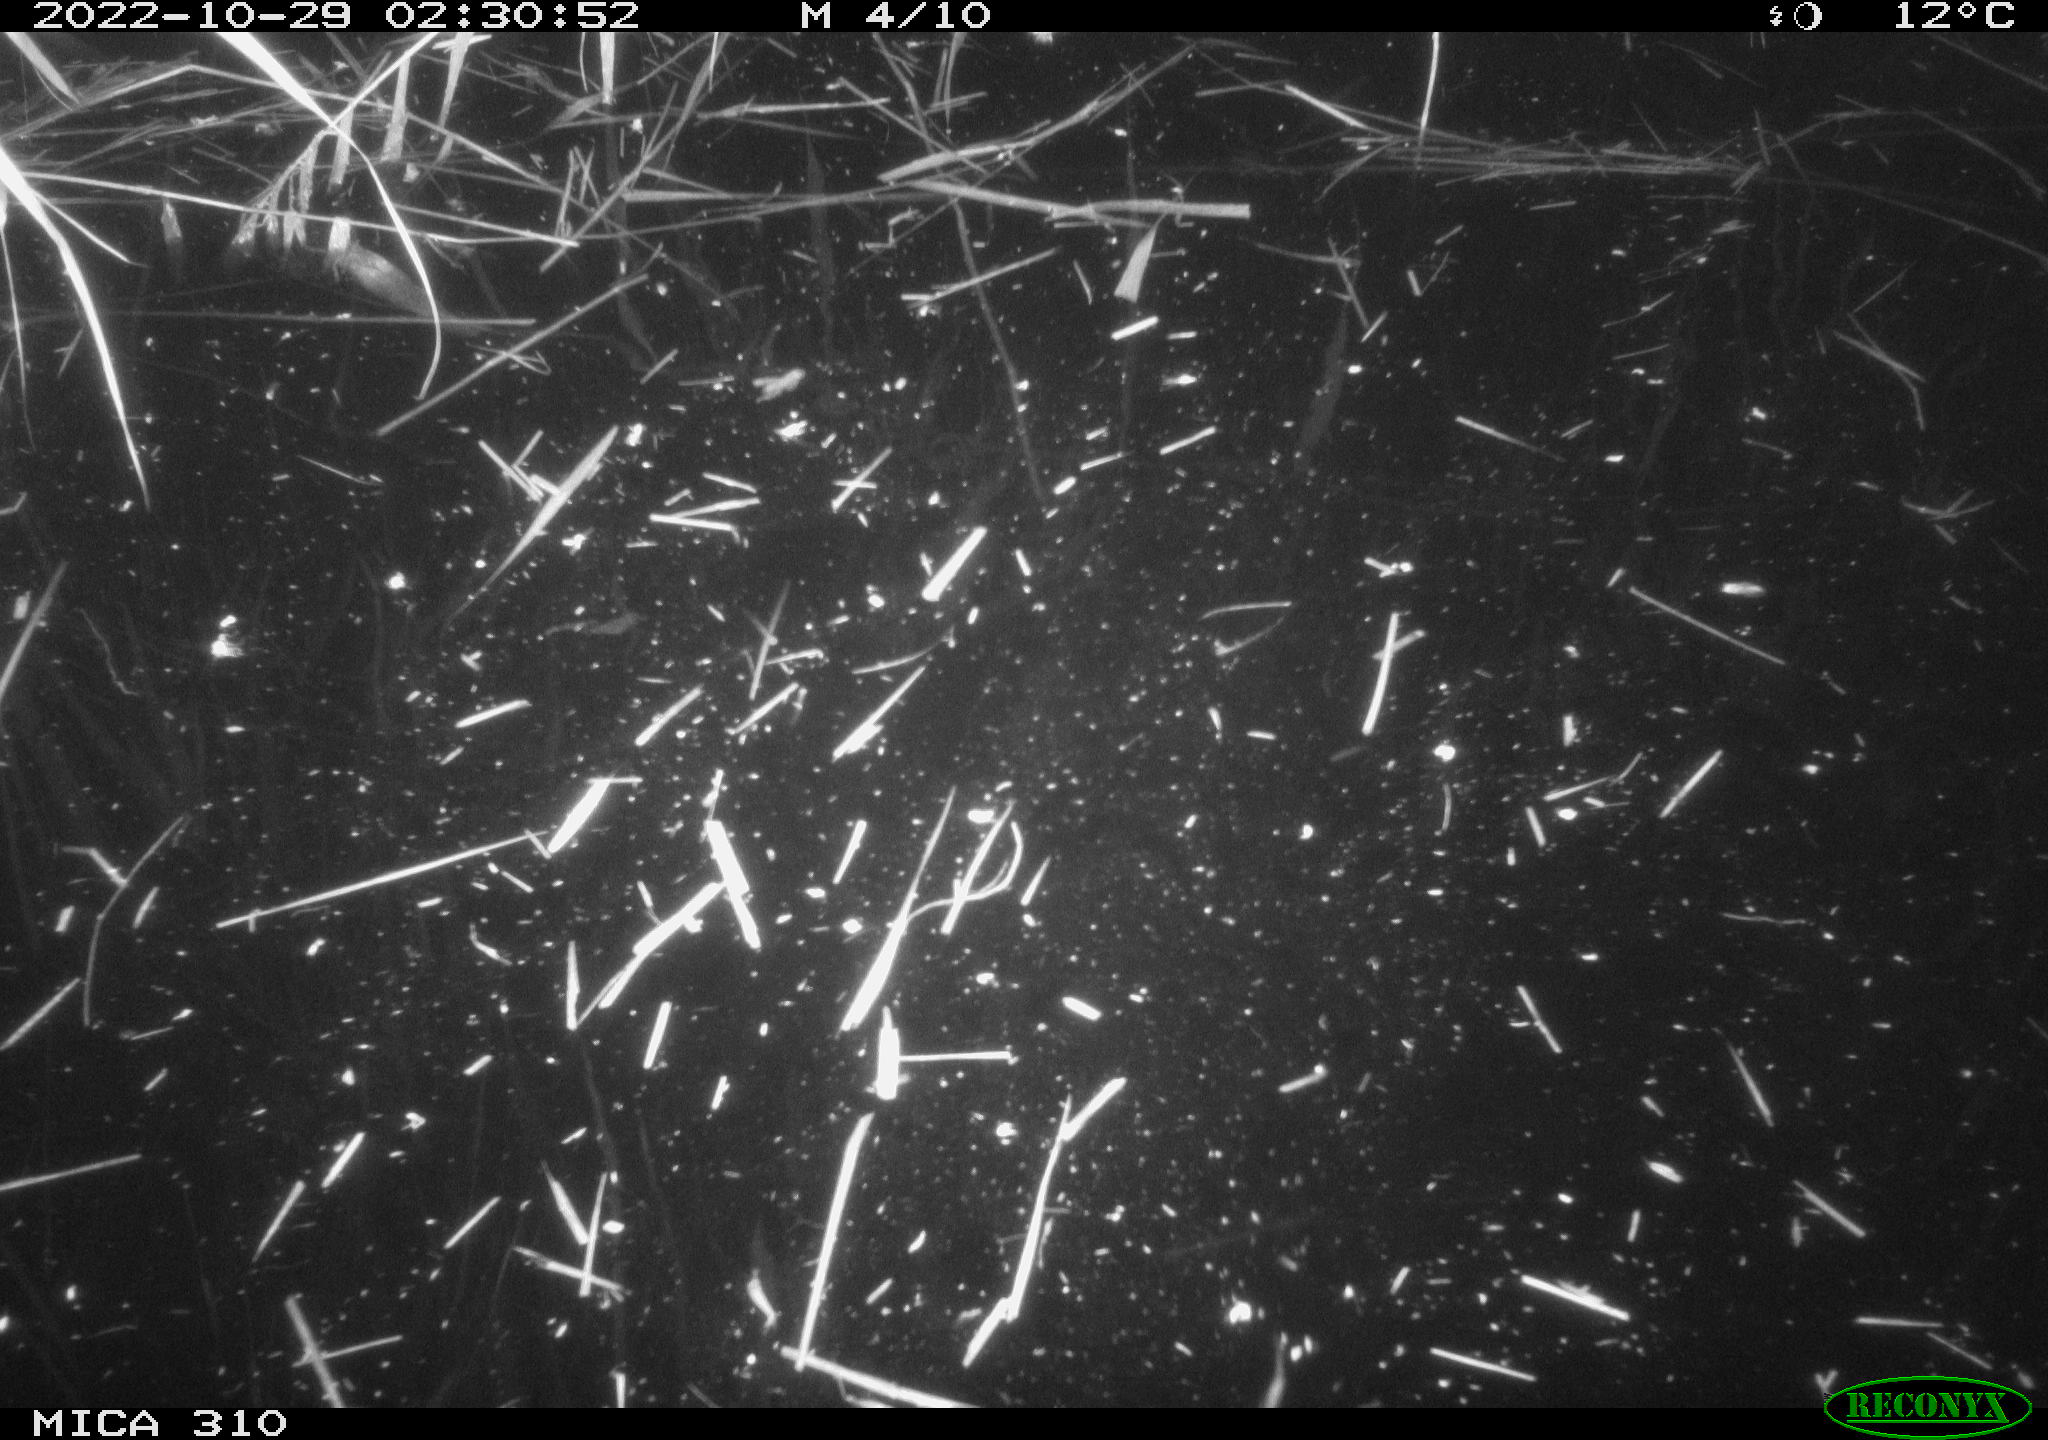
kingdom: Animalia
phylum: Chordata
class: Mammalia
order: Rodentia
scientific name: Rodentia
